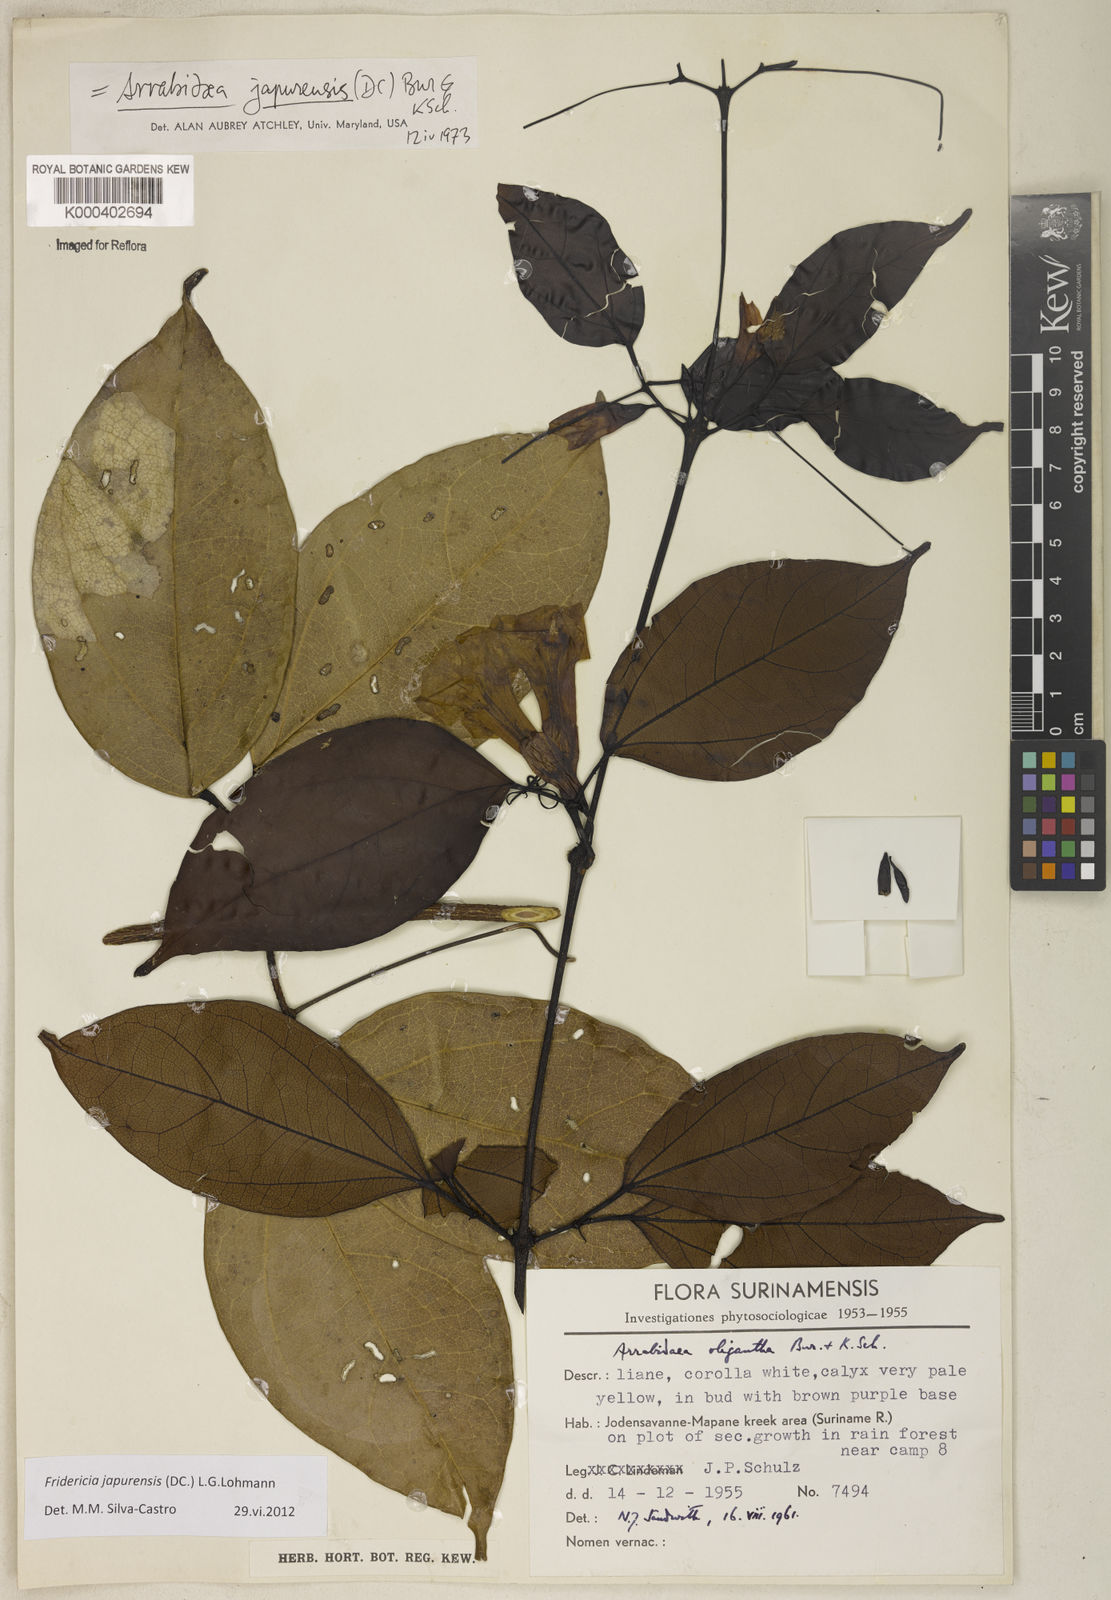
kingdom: Plantae
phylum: Tracheophyta
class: Magnoliopsida
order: Lamiales
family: Bignoniaceae
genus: Fridericia
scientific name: Fridericia japurensis
